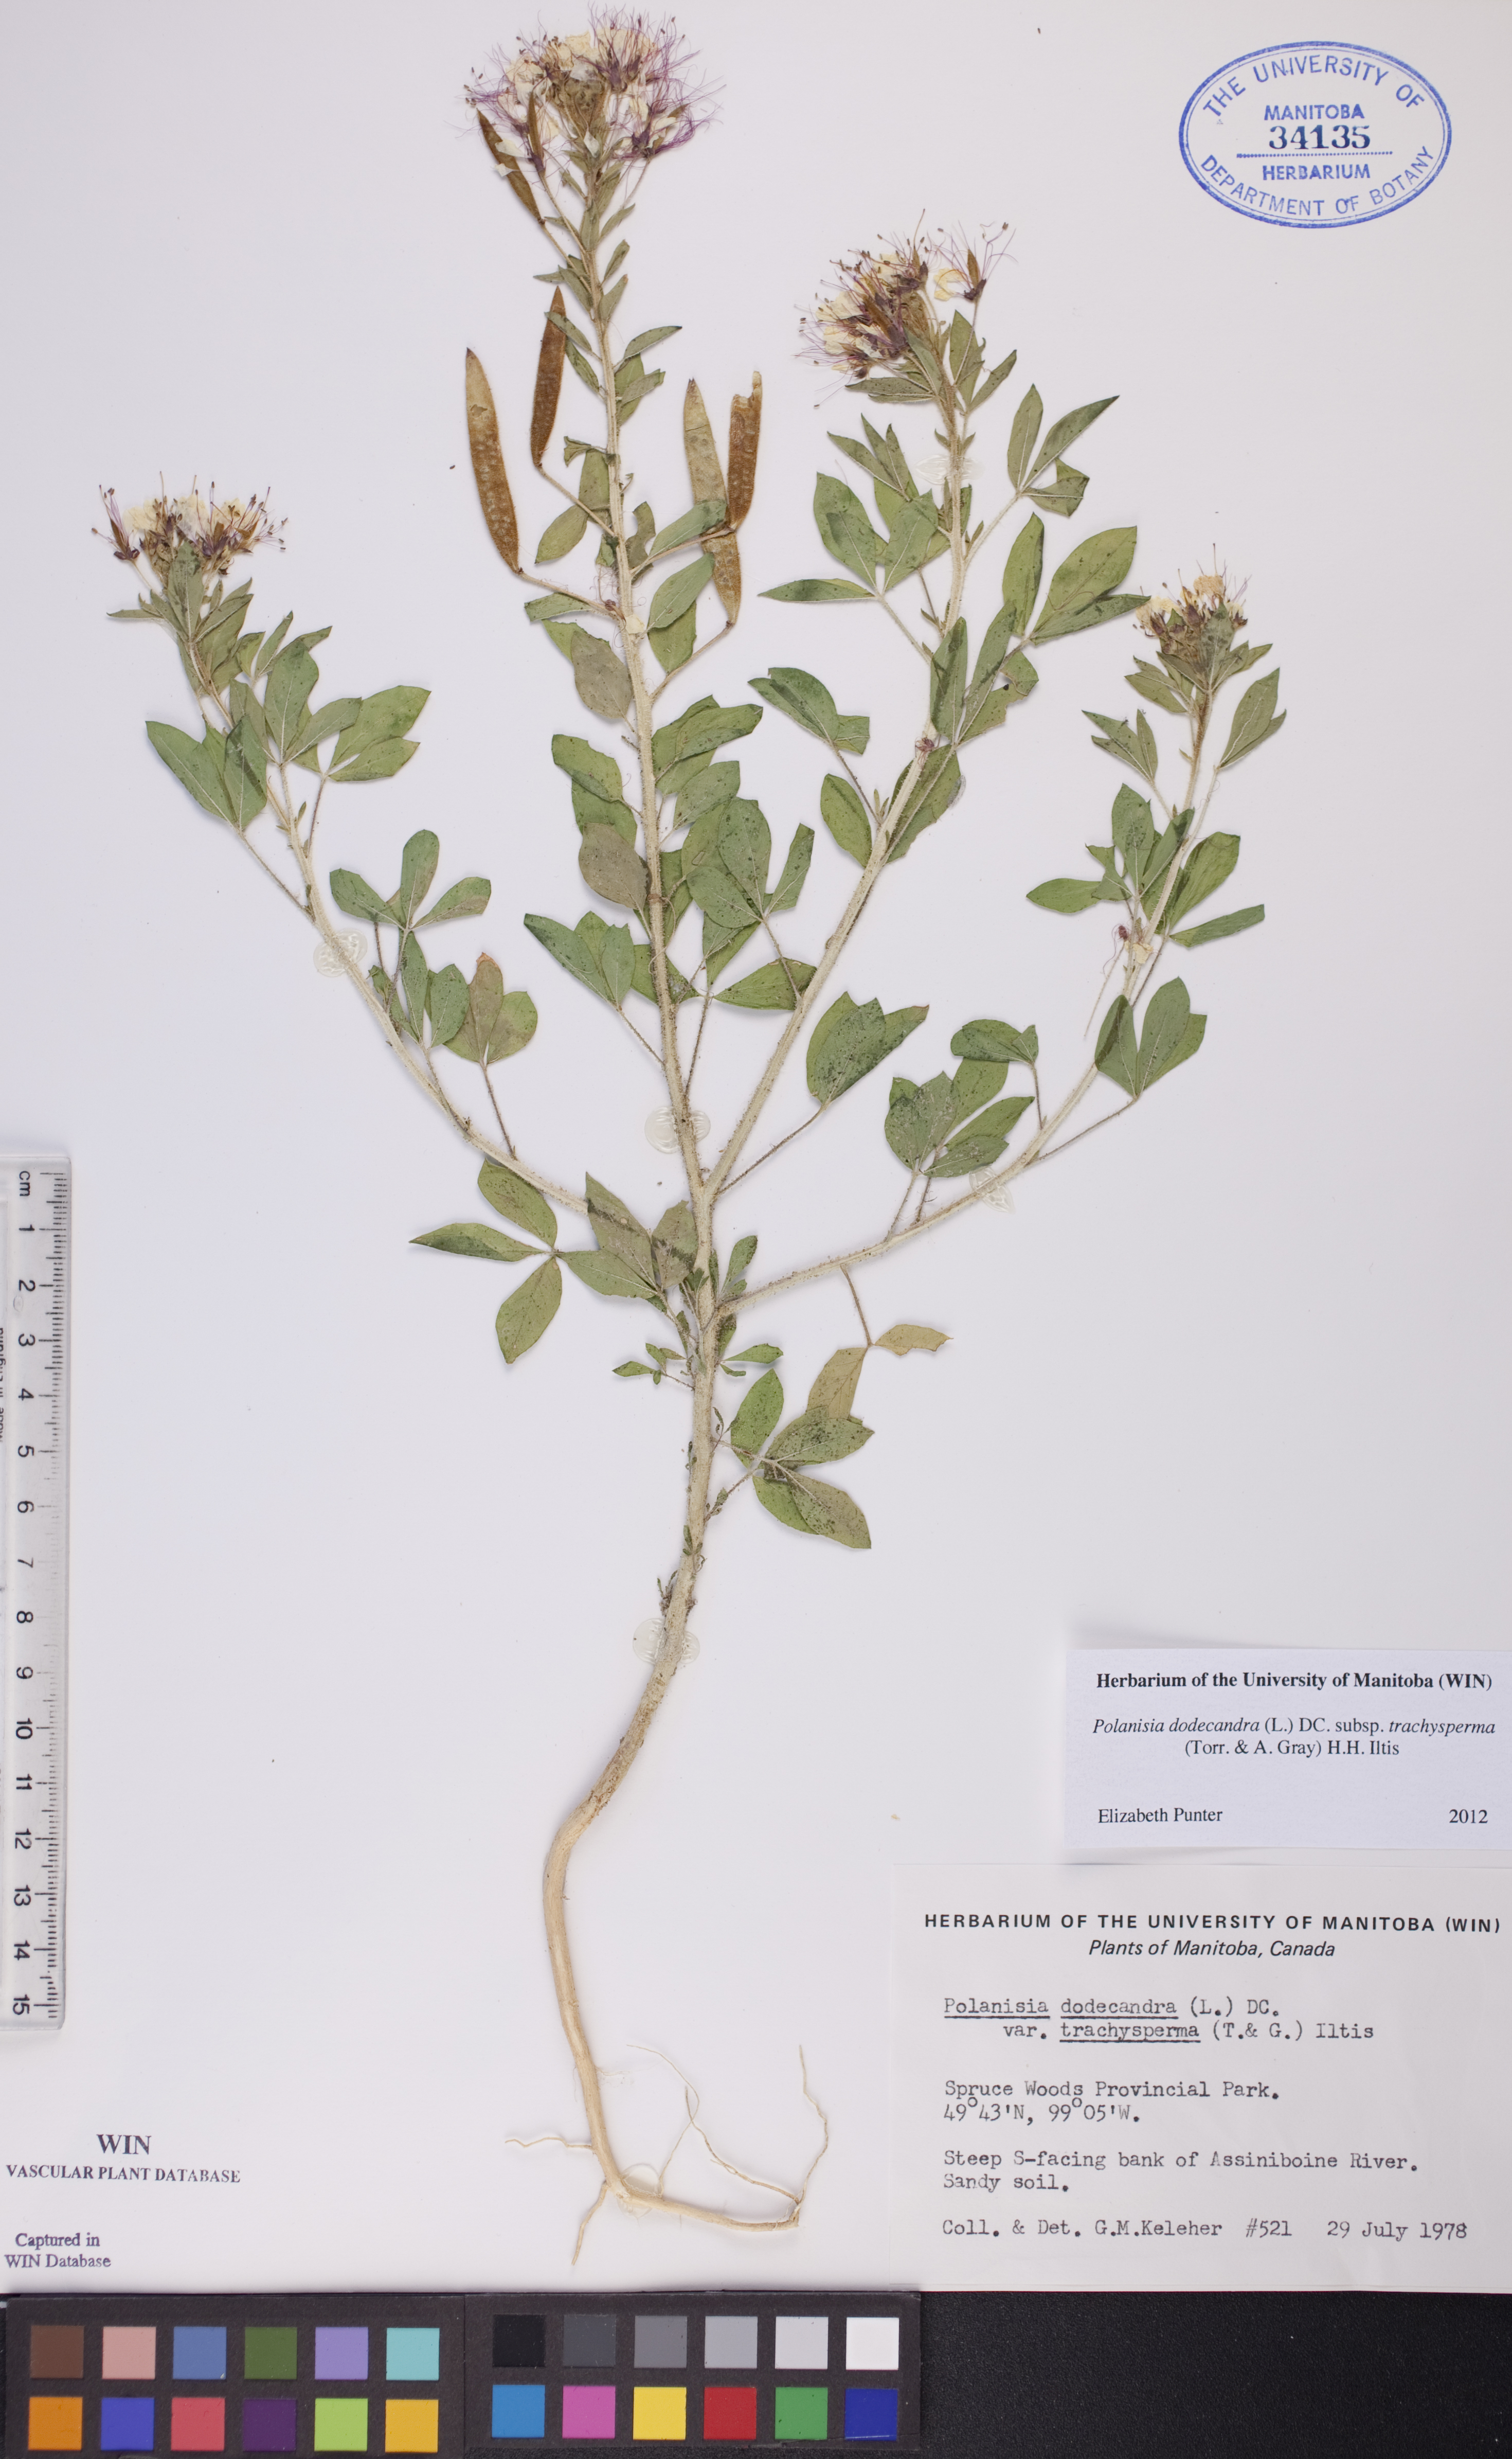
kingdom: Plantae
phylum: Tracheophyta
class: Magnoliopsida
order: Brassicales
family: Cleomaceae
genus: Polanisia
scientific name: Polanisia trachysperma
